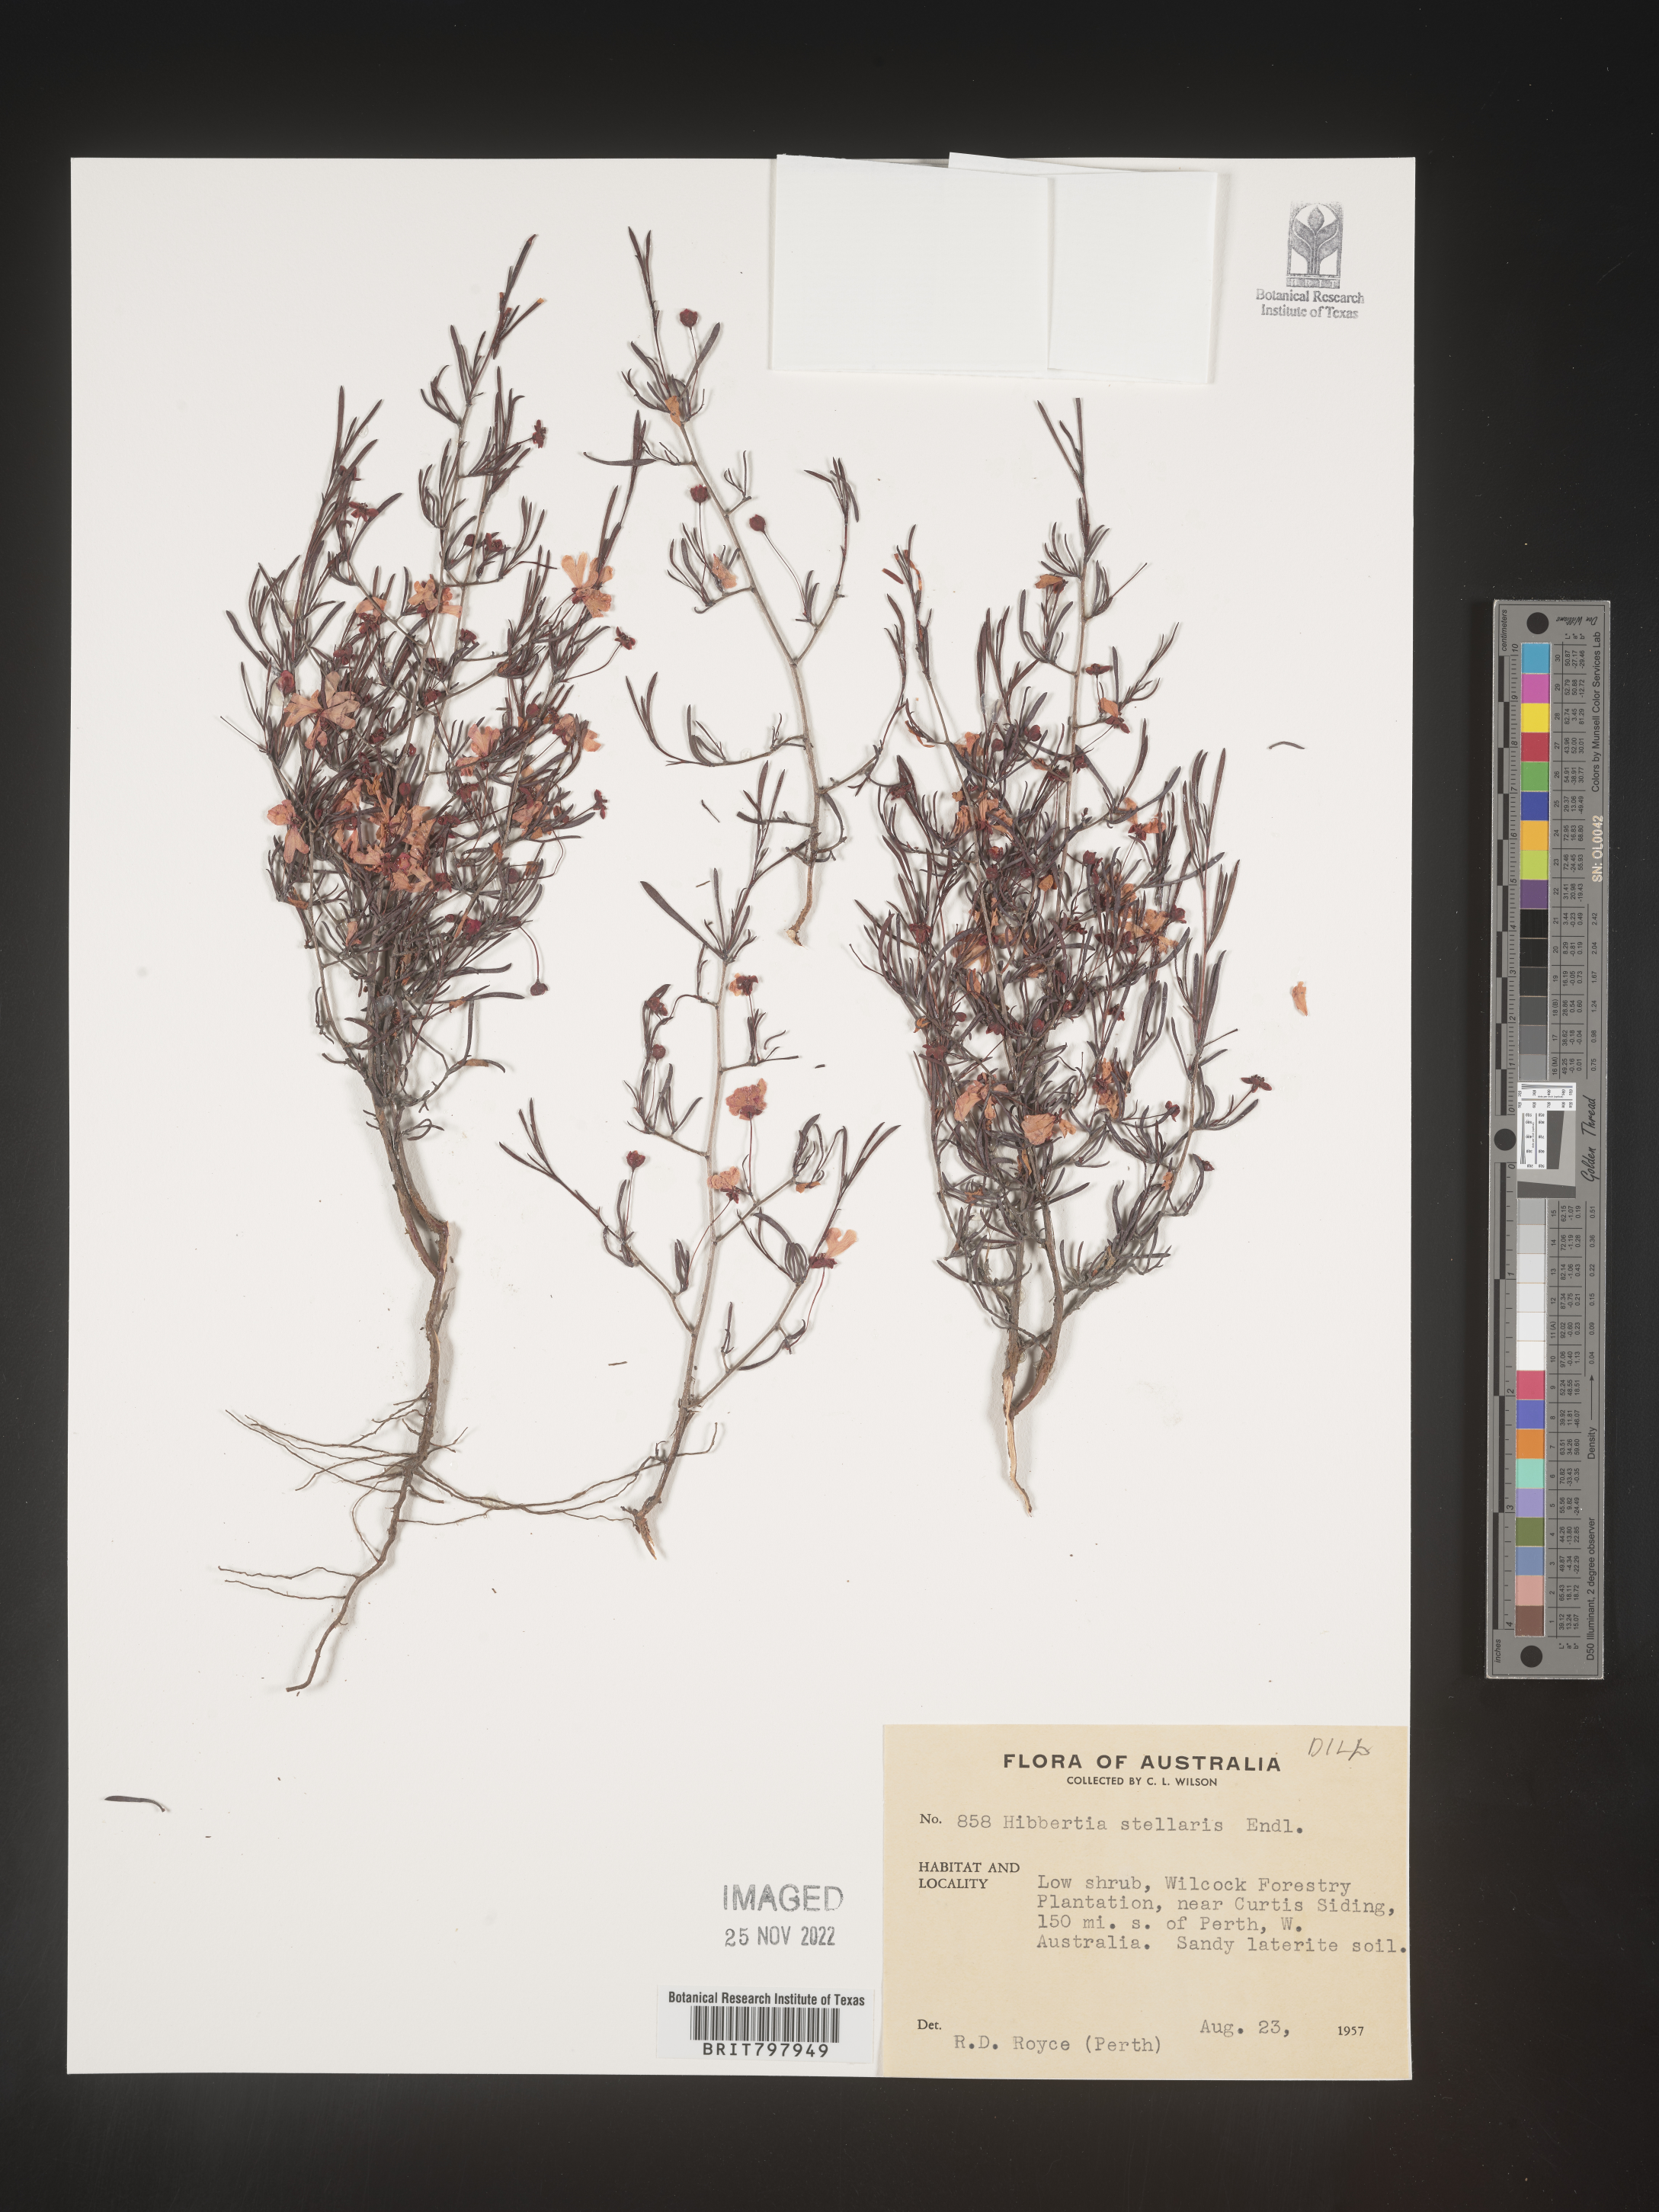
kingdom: Plantae
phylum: Tracheophyta
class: Magnoliopsida
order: Dilleniales
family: Dilleniaceae
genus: Hibbertia
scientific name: Hibbertia
